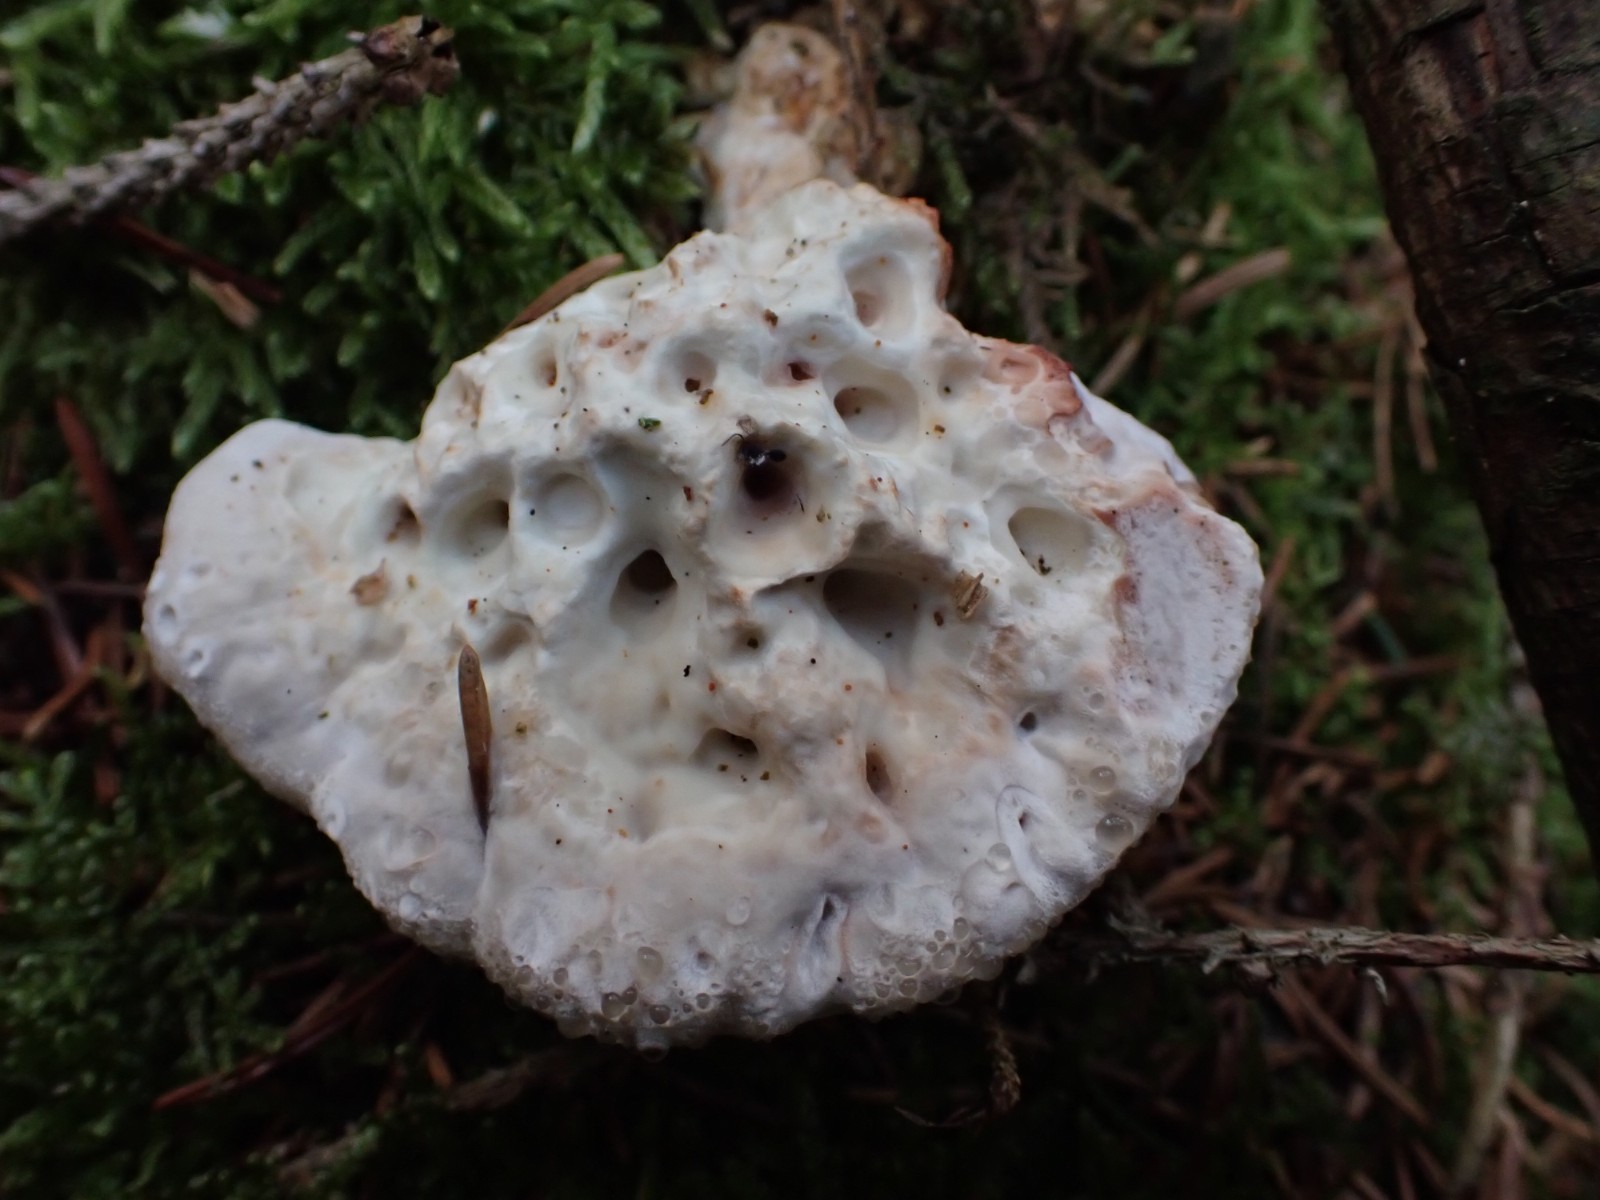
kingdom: Fungi
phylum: Basidiomycota
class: Agaricomycetes
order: Polyporales
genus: Calcipostia
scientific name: Calcipostia guttulata
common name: dråbe-kødporesvamp
